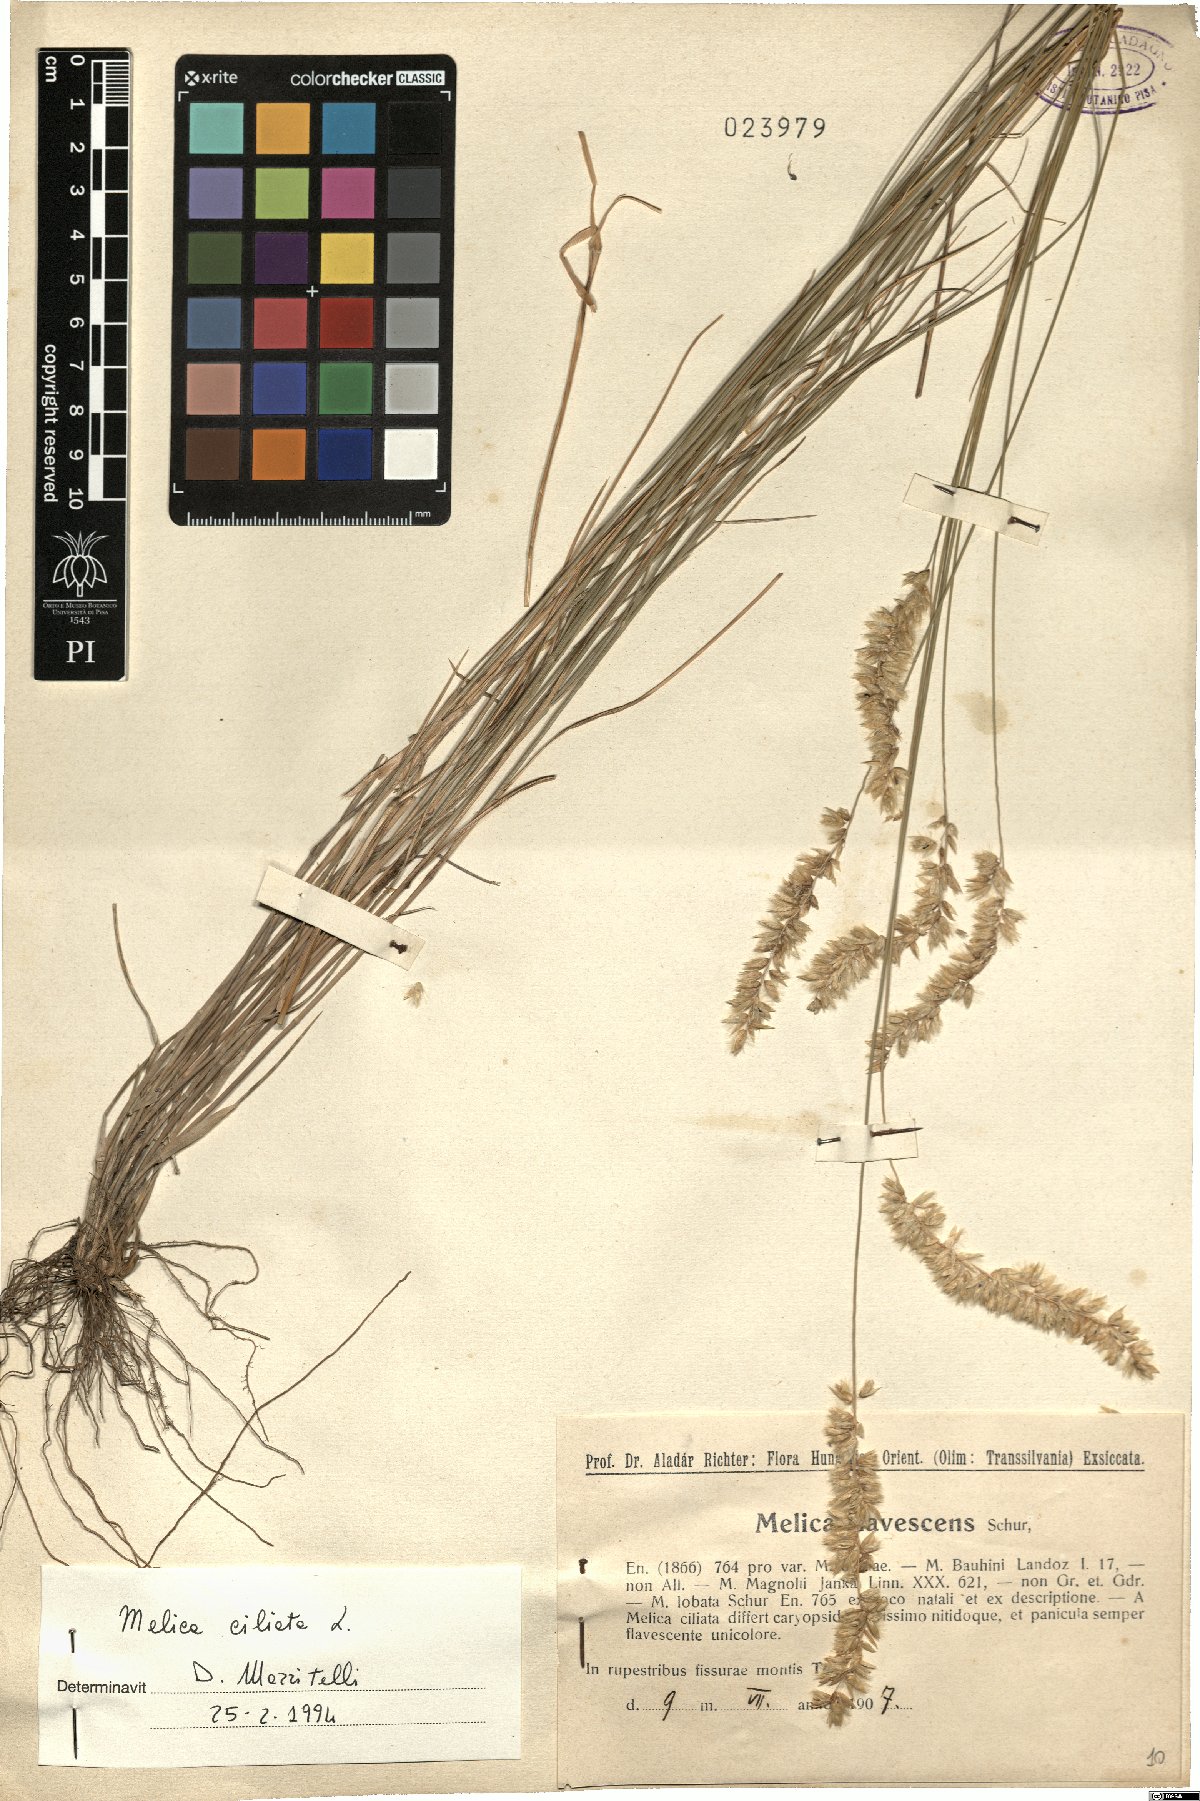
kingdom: Plantae
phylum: Tracheophyta
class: Liliopsida
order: Poales
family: Poaceae
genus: Melica
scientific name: Melica ciliata
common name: Hairy melicgrass
